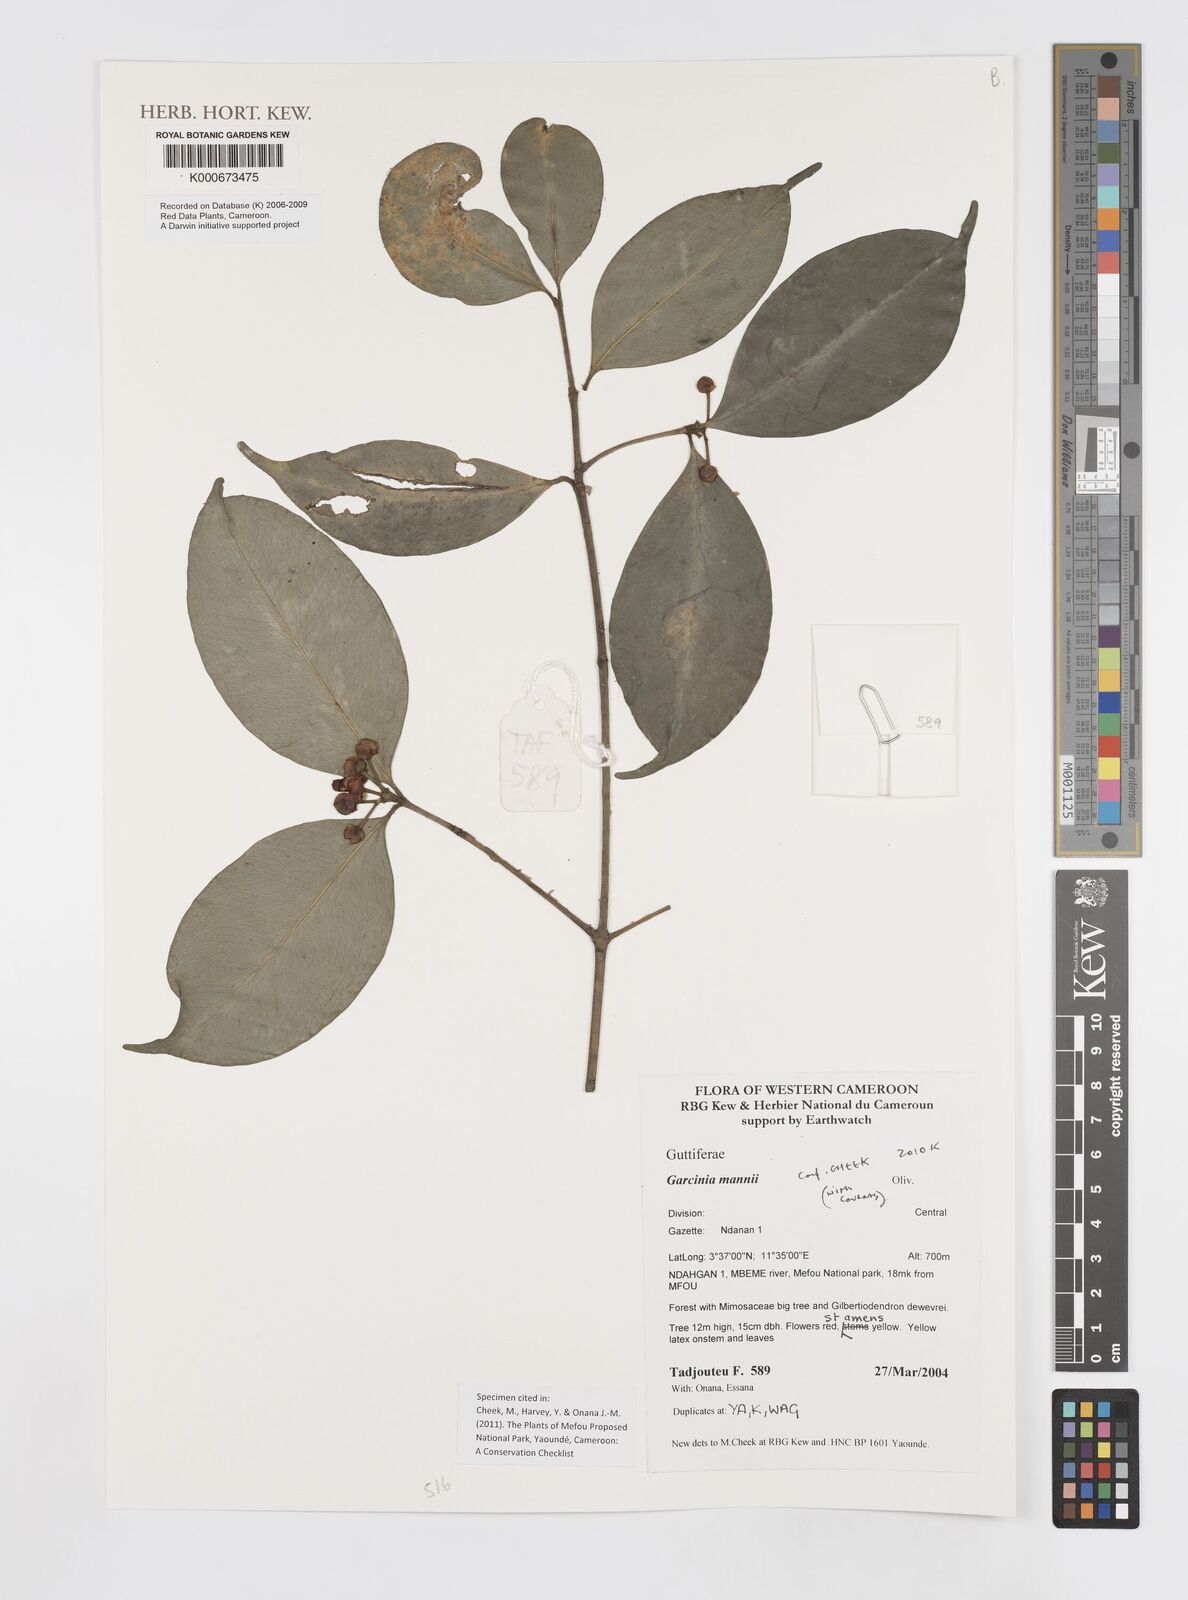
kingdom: Plantae
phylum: Tracheophyta
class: Magnoliopsida
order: Malpighiales
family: Clusiaceae
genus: Garcinia
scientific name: Garcinia mannii
